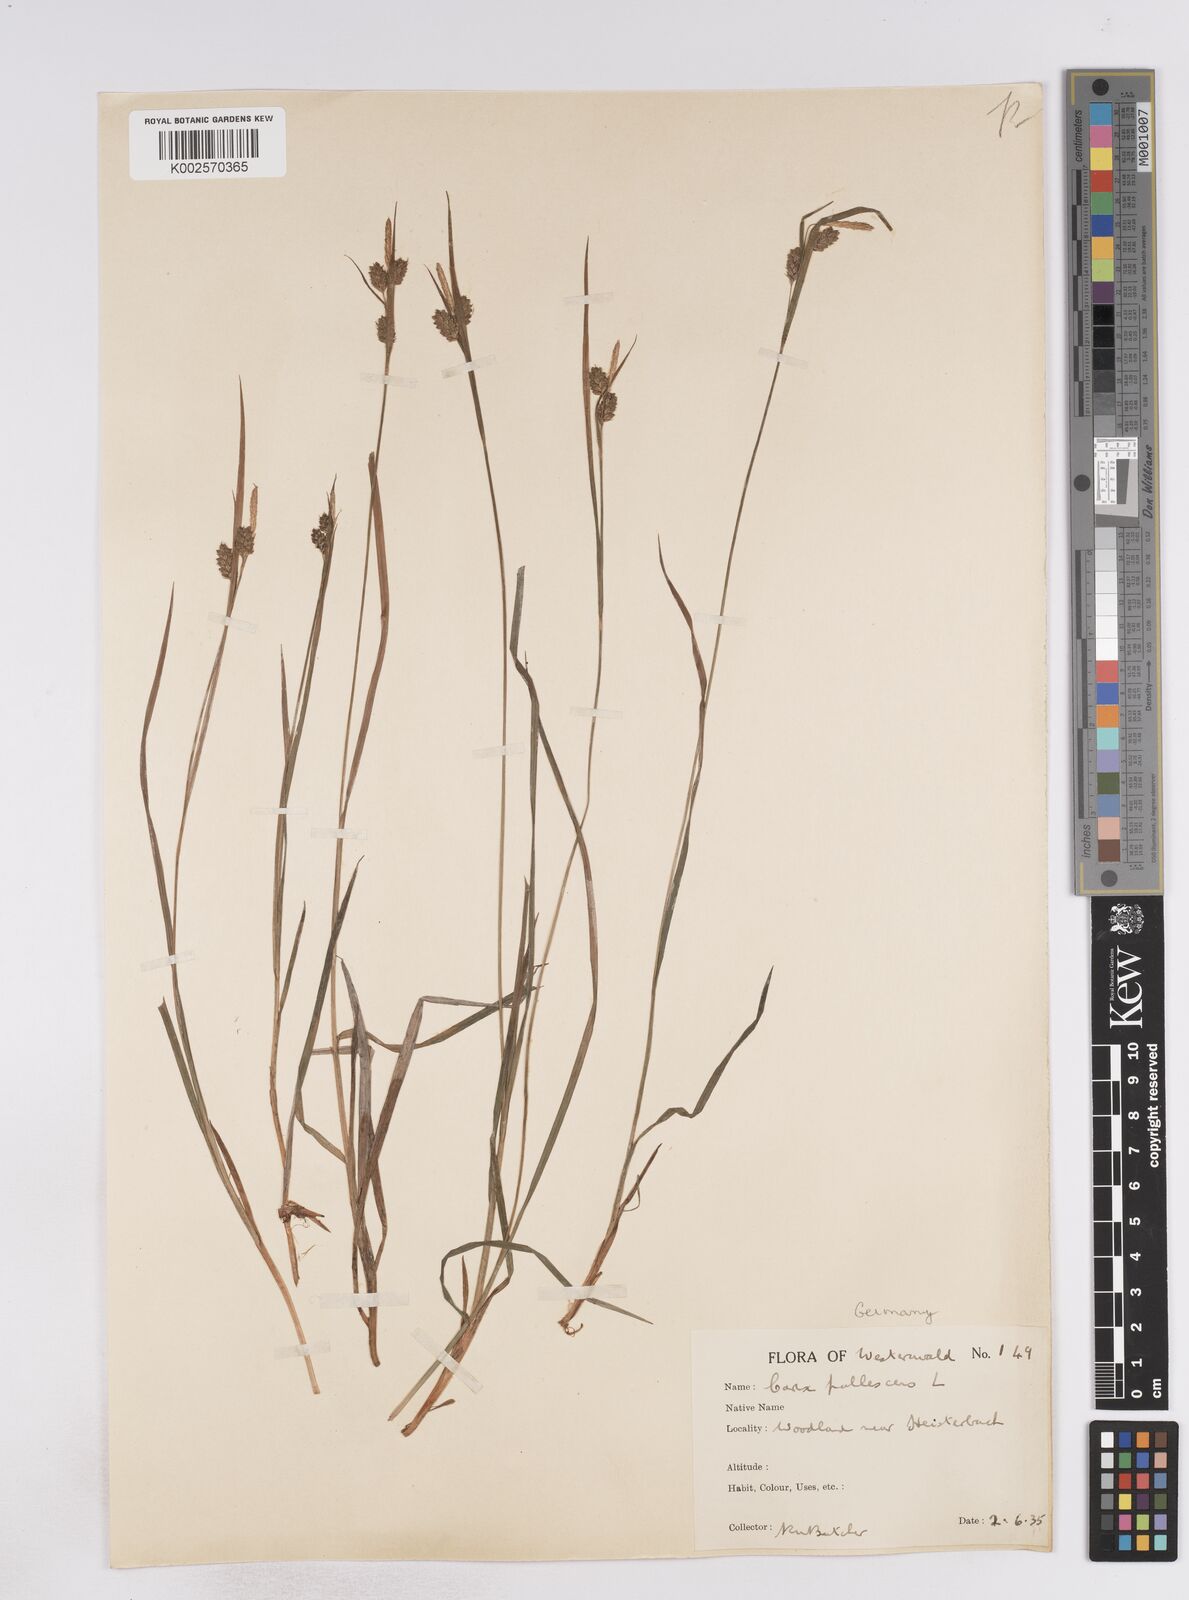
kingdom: Plantae
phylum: Tracheophyta
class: Liliopsida
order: Poales
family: Cyperaceae
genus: Carex
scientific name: Carex pallescens
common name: Pale sedge
